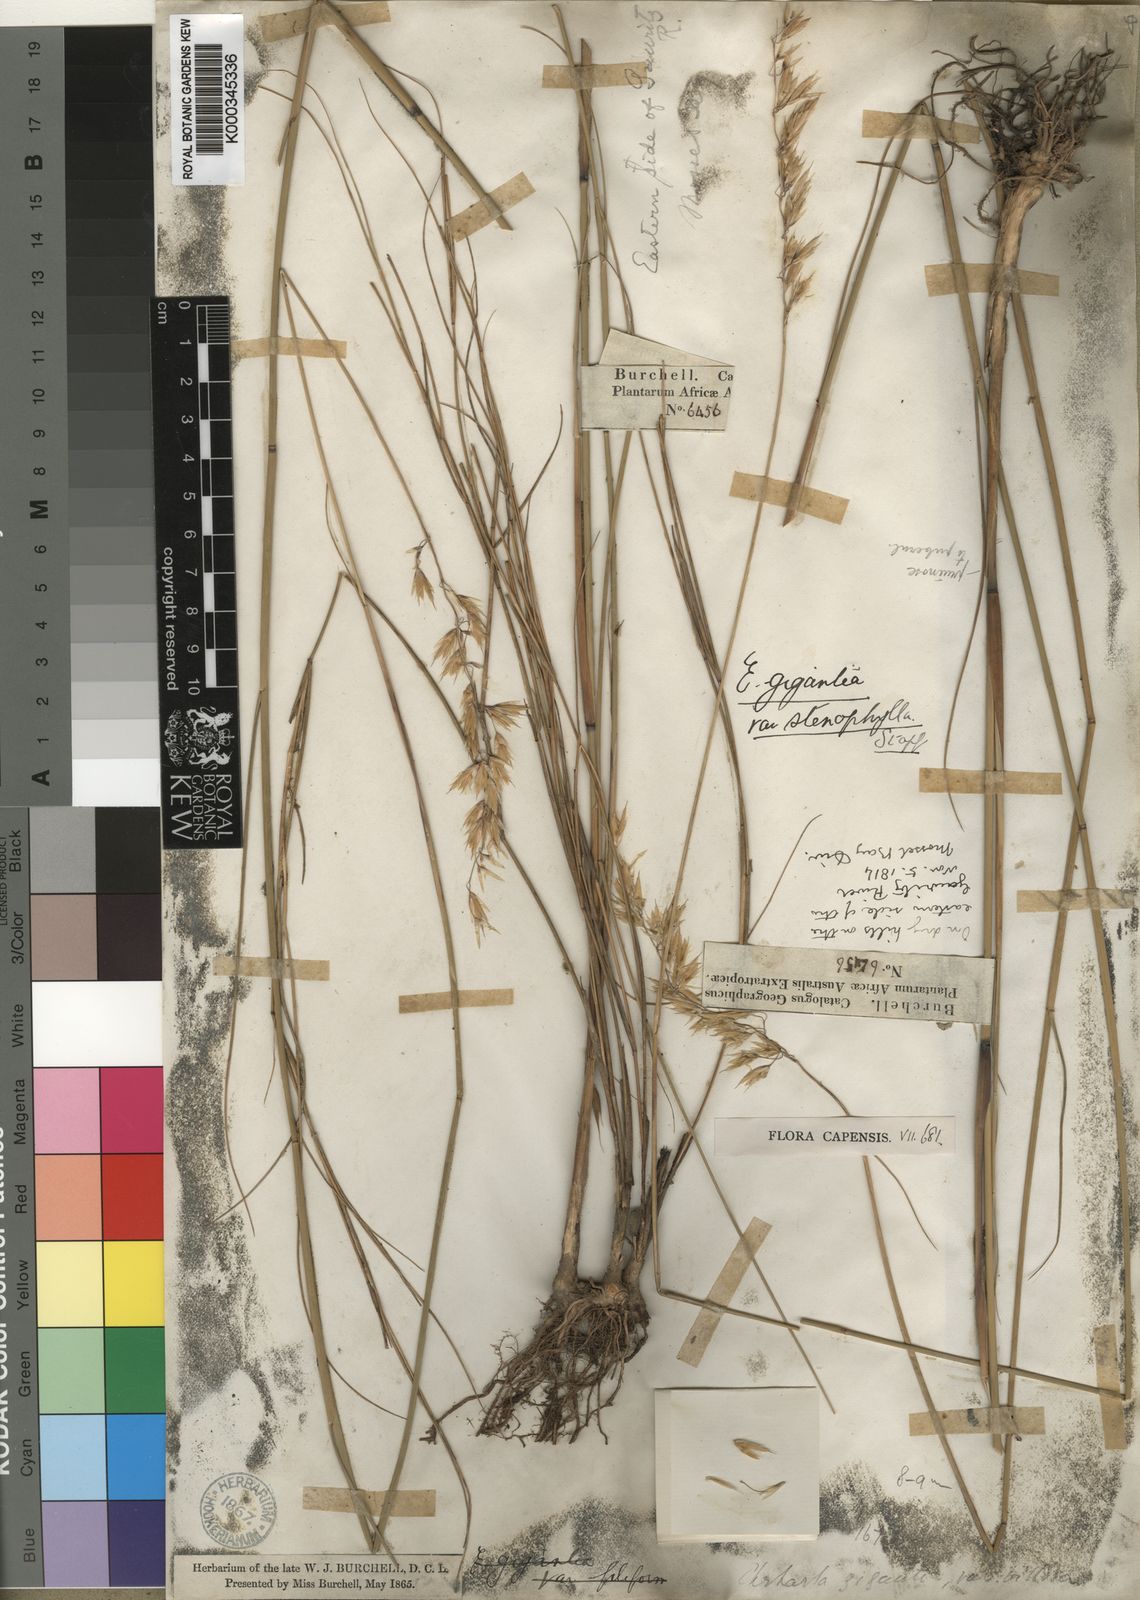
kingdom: Plantae
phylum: Tracheophyta
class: Liliopsida
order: Poales
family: Poaceae
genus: Ehrharta
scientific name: Ehrharta thunbergii
